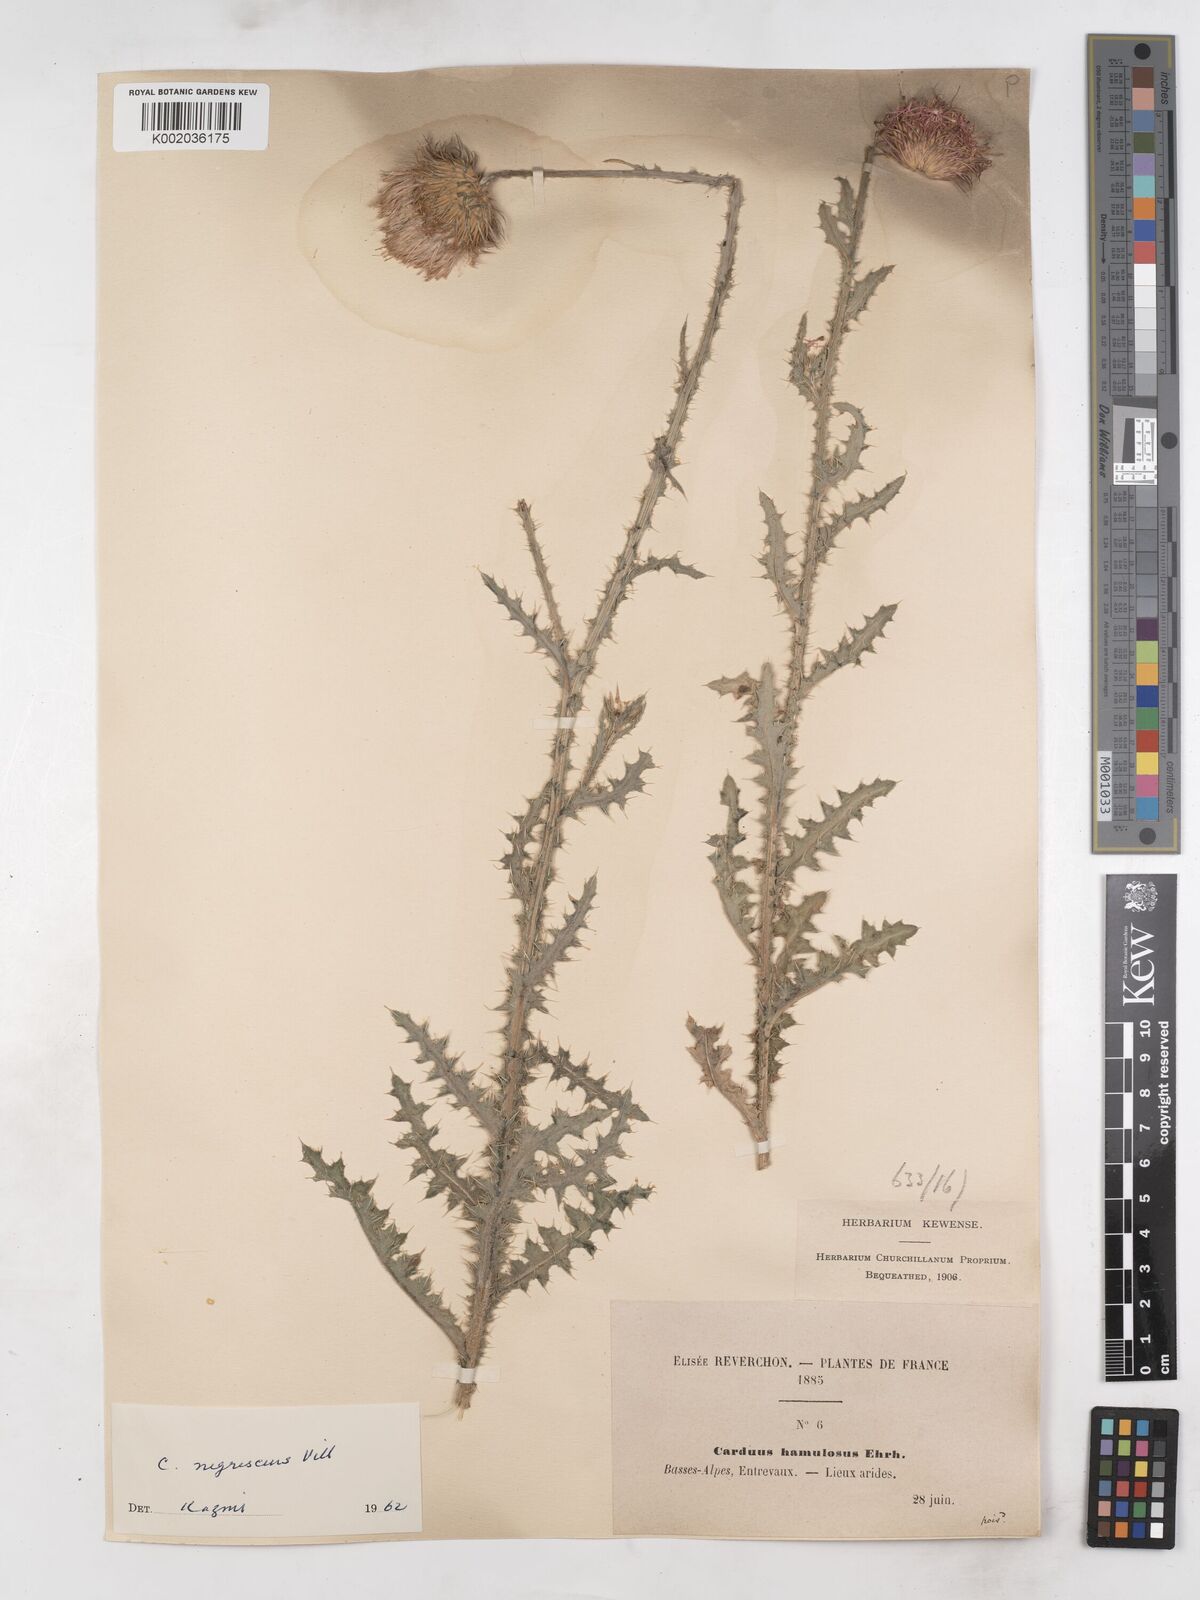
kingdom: Plantae
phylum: Tracheophyta
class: Magnoliopsida
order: Asterales
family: Asteraceae
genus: Carduus
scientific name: Carduus nigrescens
